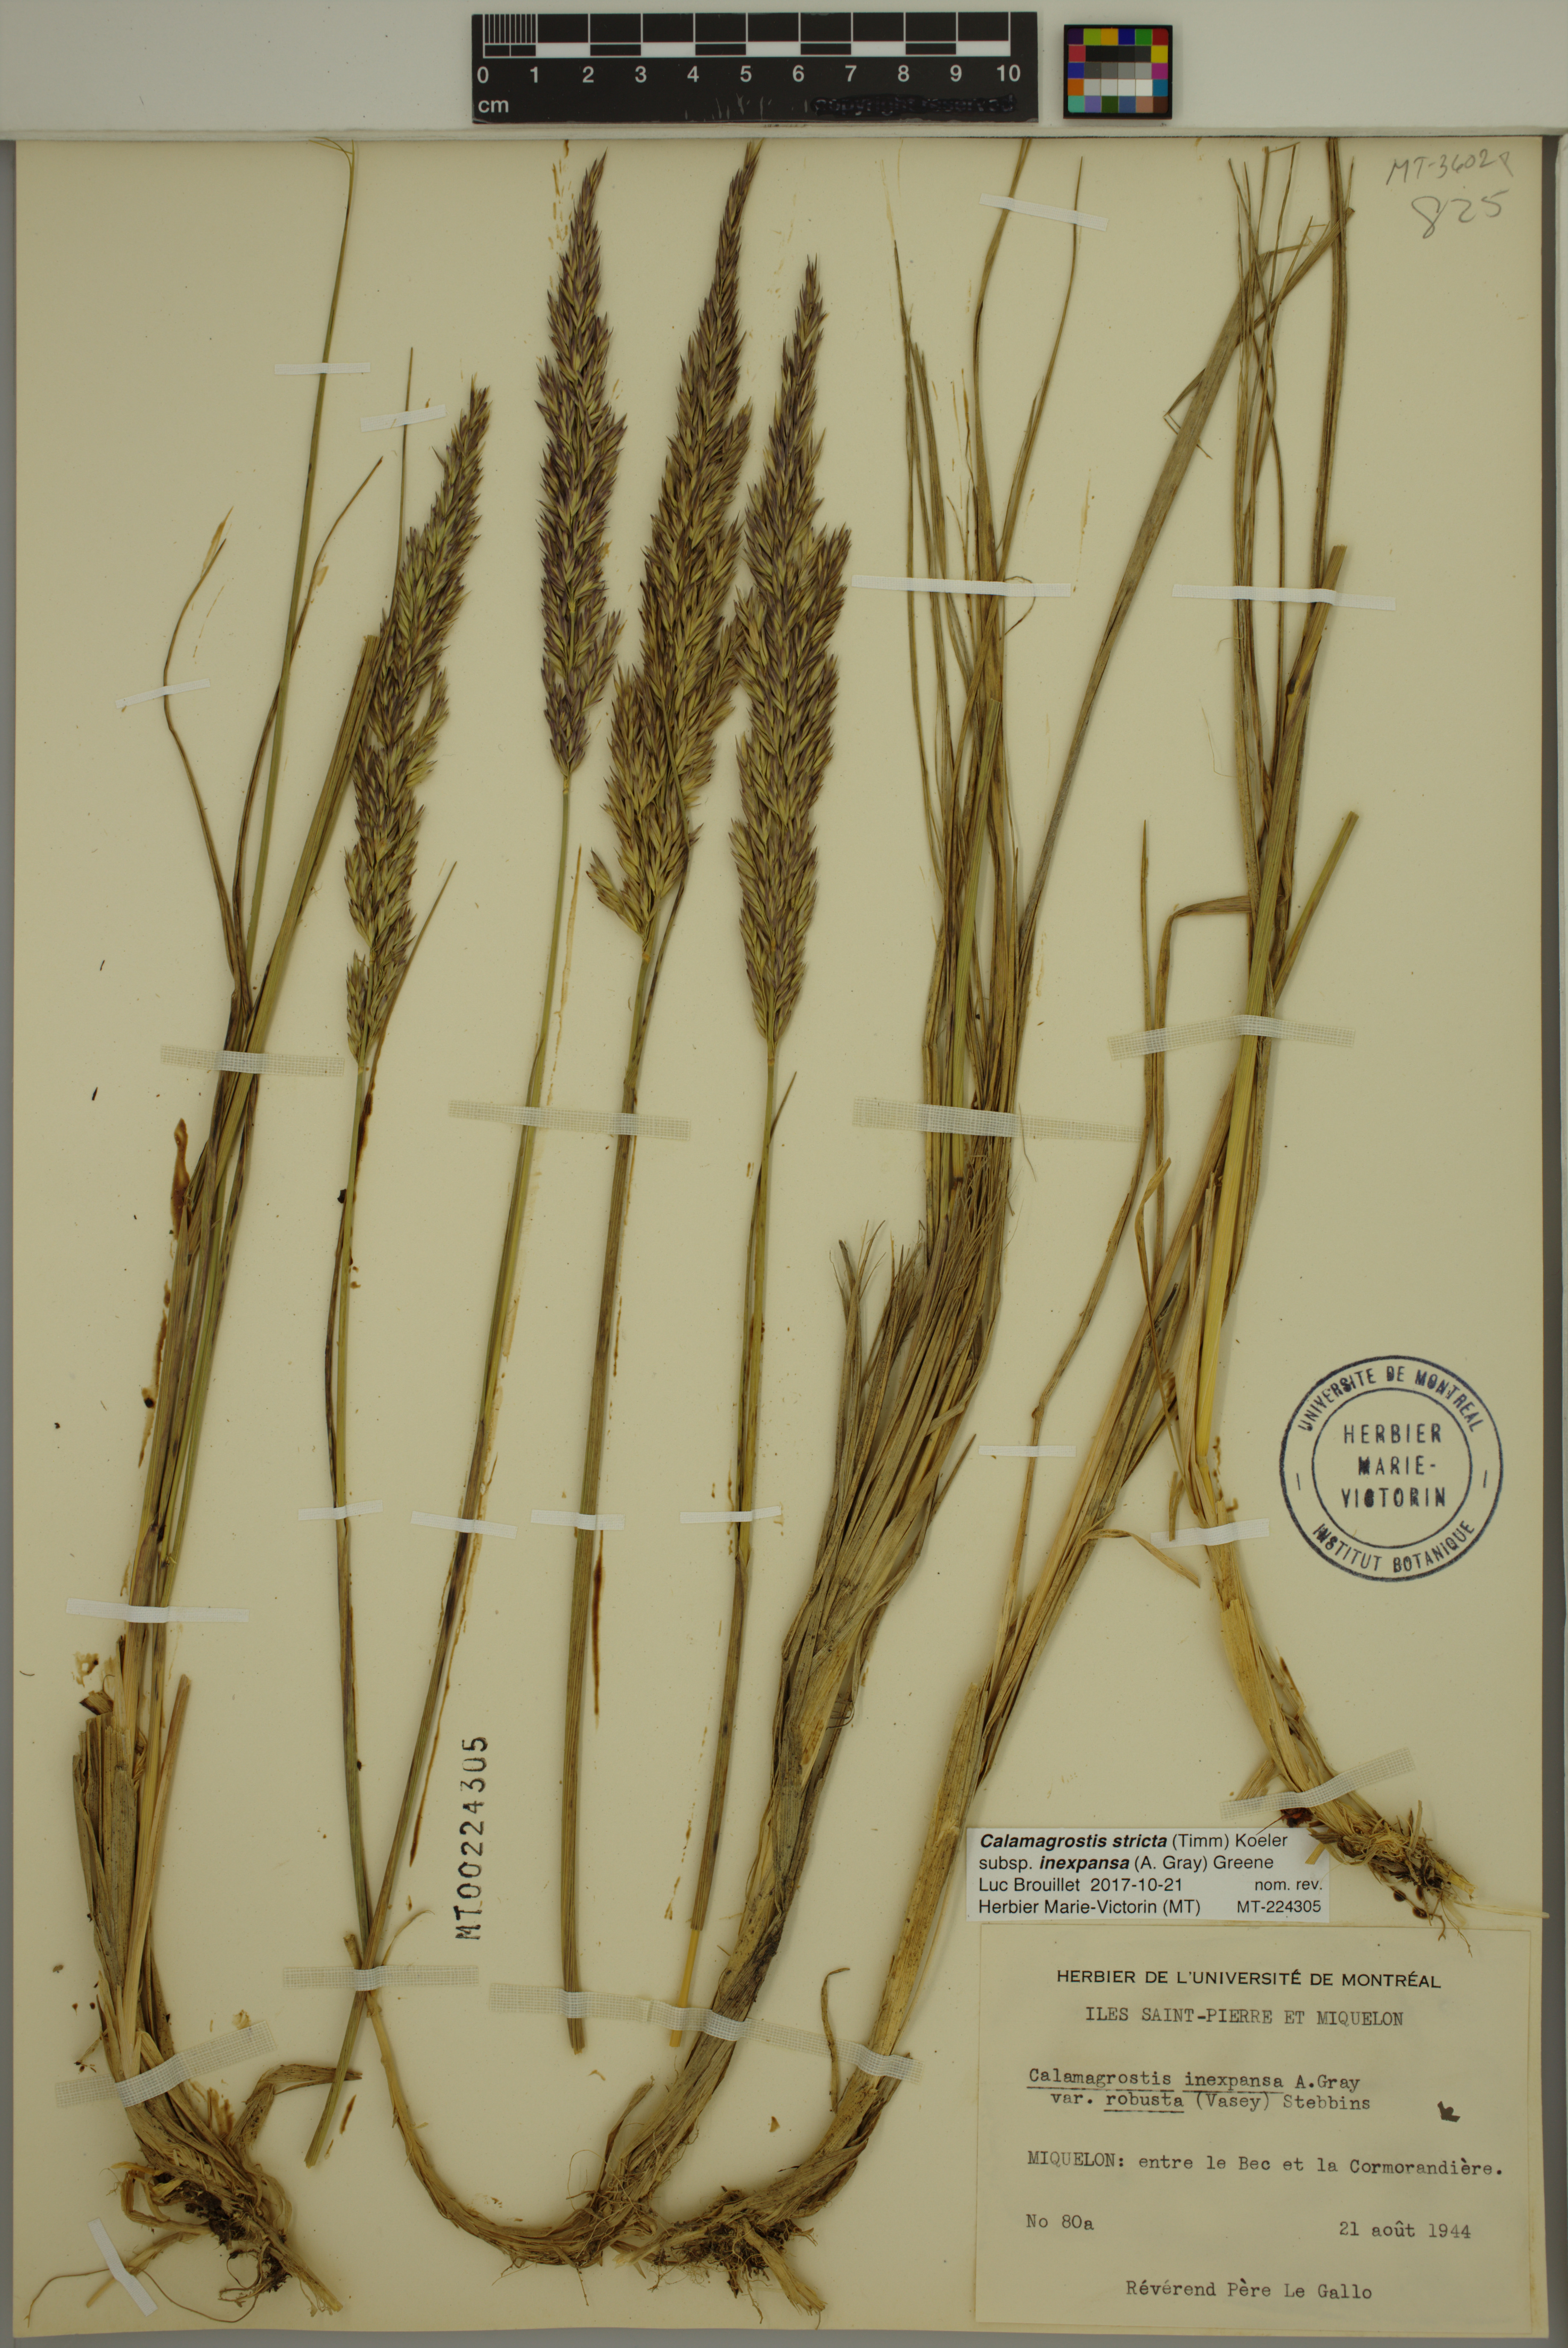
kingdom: Plantae
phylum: Tracheophyta
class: Liliopsida
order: Poales
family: Poaceae
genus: Calamagrostis
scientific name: Calamagrostis inexpansa
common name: Northern reedgrass
